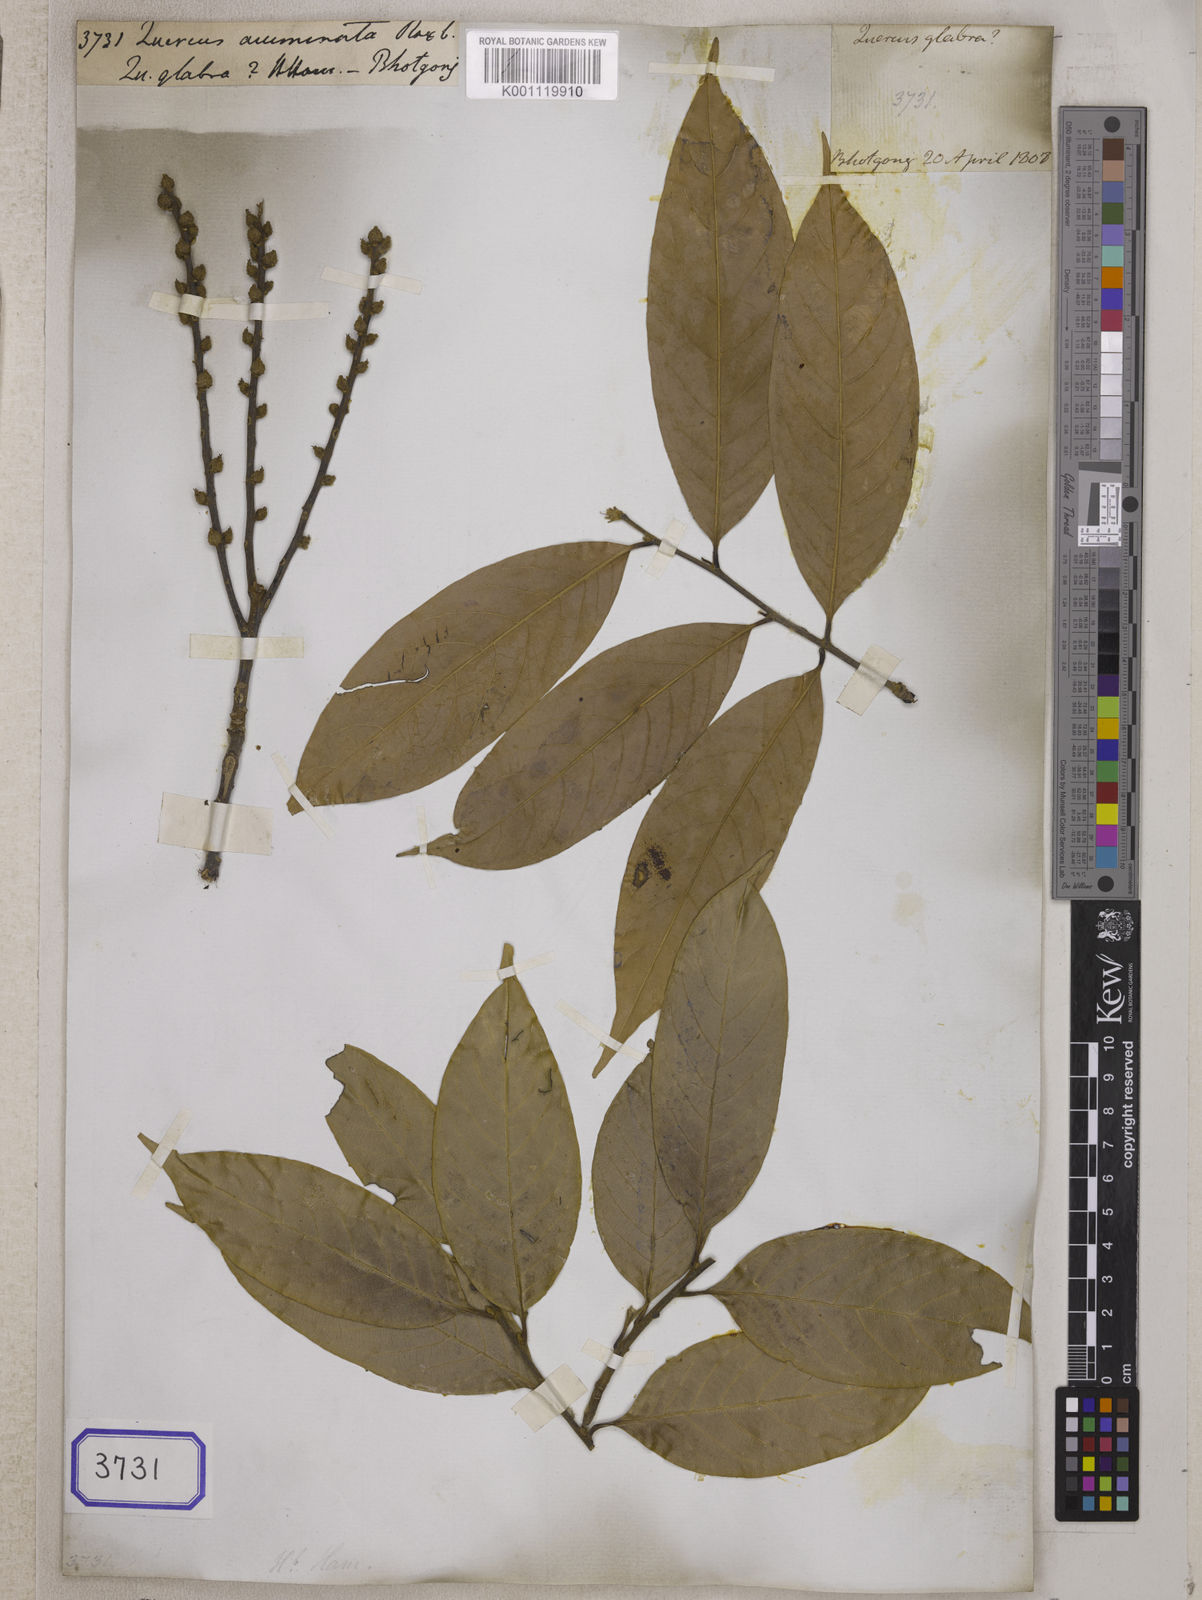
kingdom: Plantae
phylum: Tracheophyta
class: Magnoliopsida
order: Fagales
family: Fagaceae
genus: Lithocarpus
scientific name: Lithocarpus acuminatus
